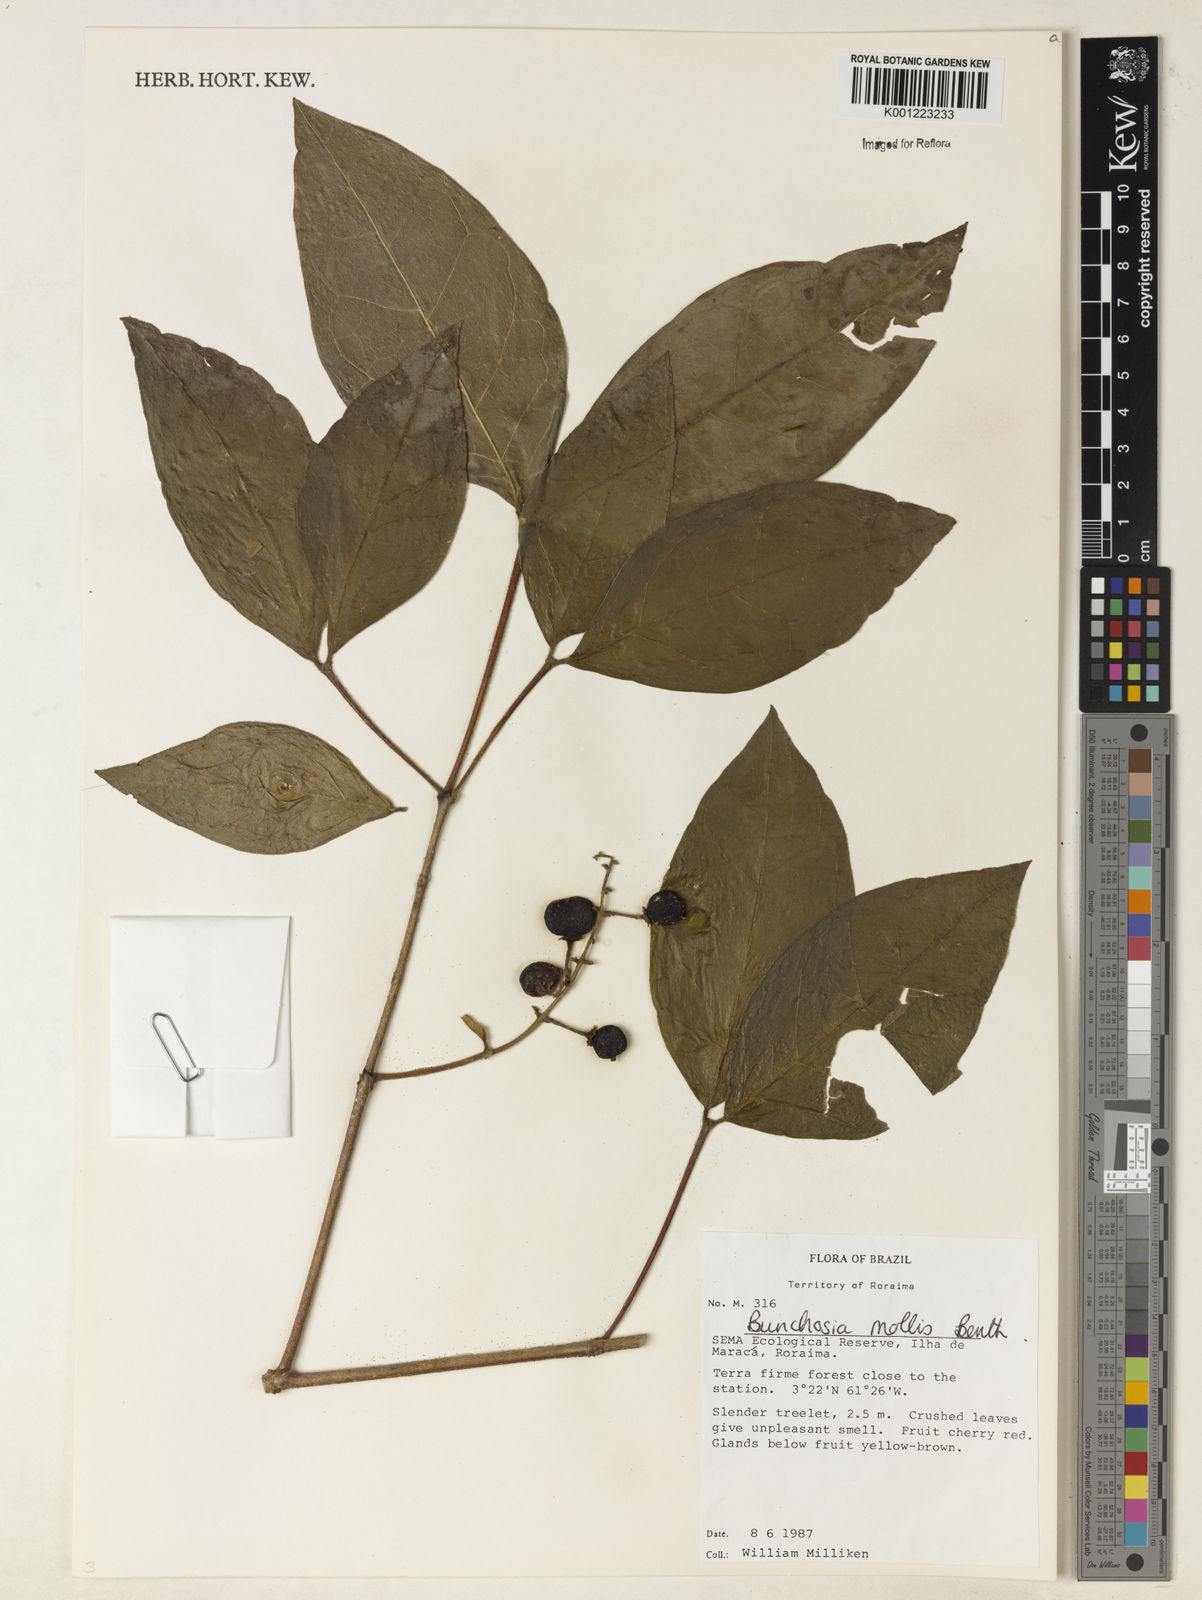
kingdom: Plantae
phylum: Tracheophyta
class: Magnoliopsida
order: Malpighiales
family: Malpighiaceae
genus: Bunchosia
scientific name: Bunchosia mollis
